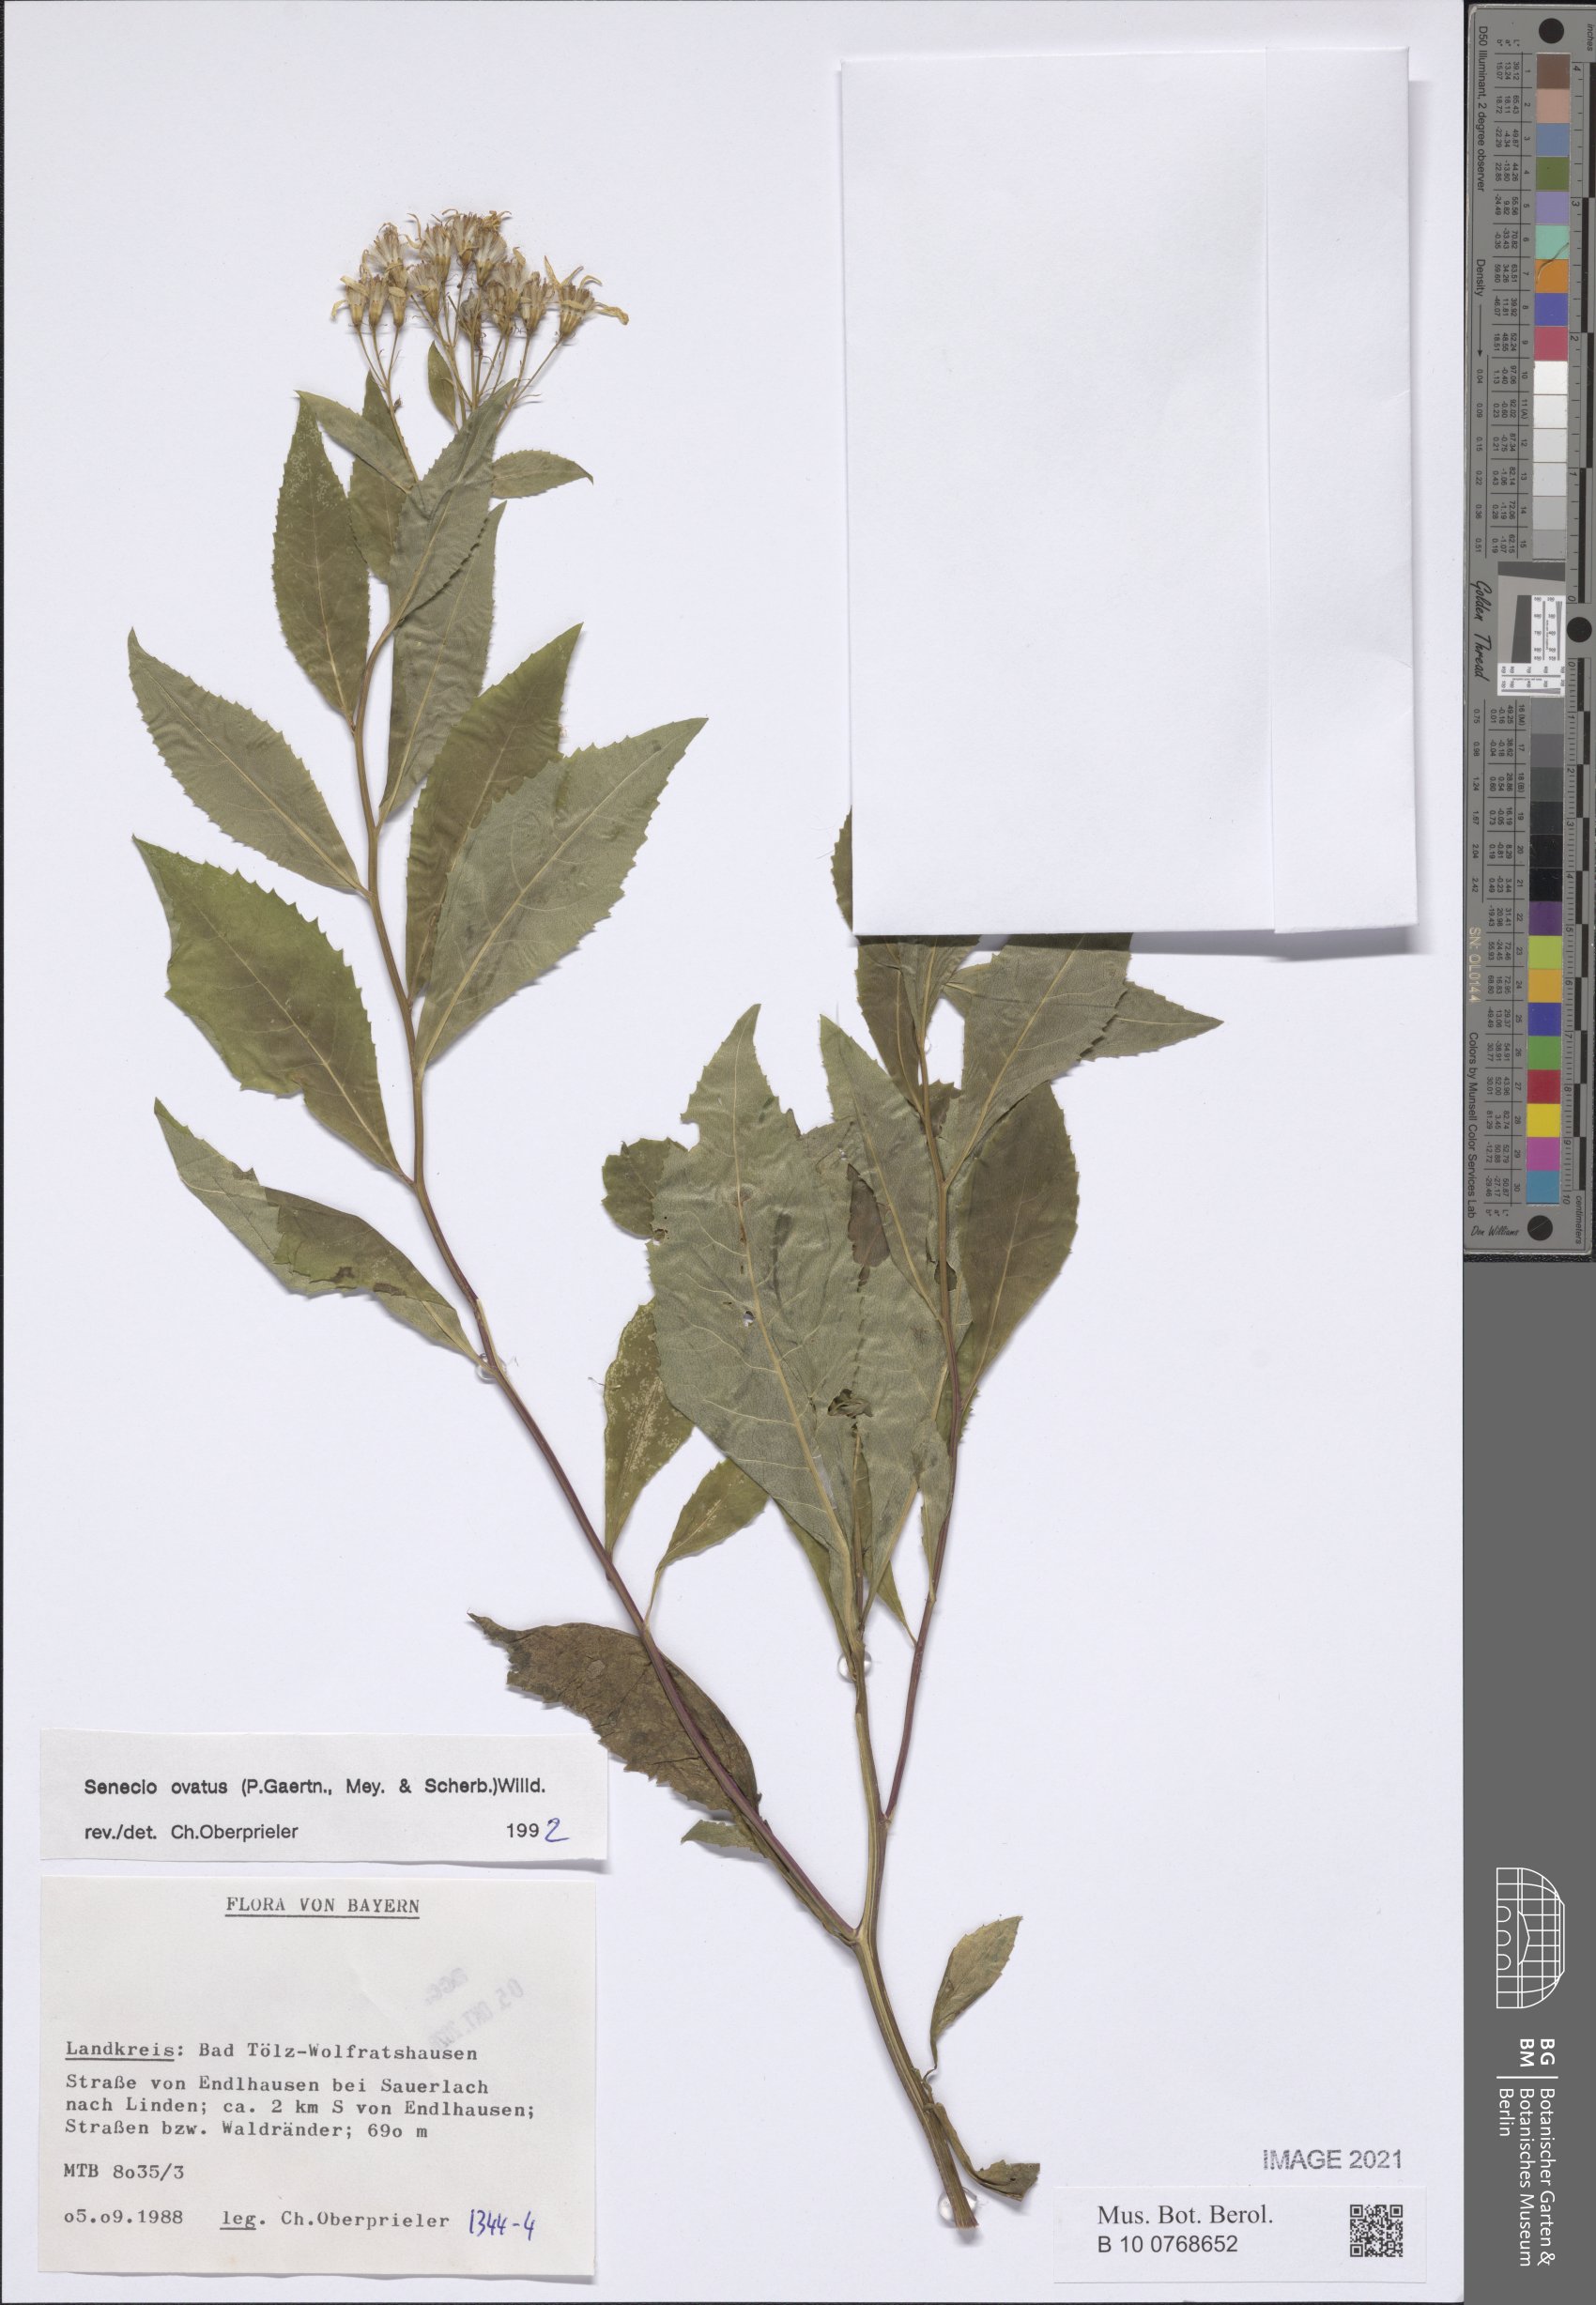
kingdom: Plantae
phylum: Tracheophyta
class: Magnoliopsida
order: Asterales
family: Asteraceae
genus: Senecio
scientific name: Senecio ovatus
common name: Wood ragwort
